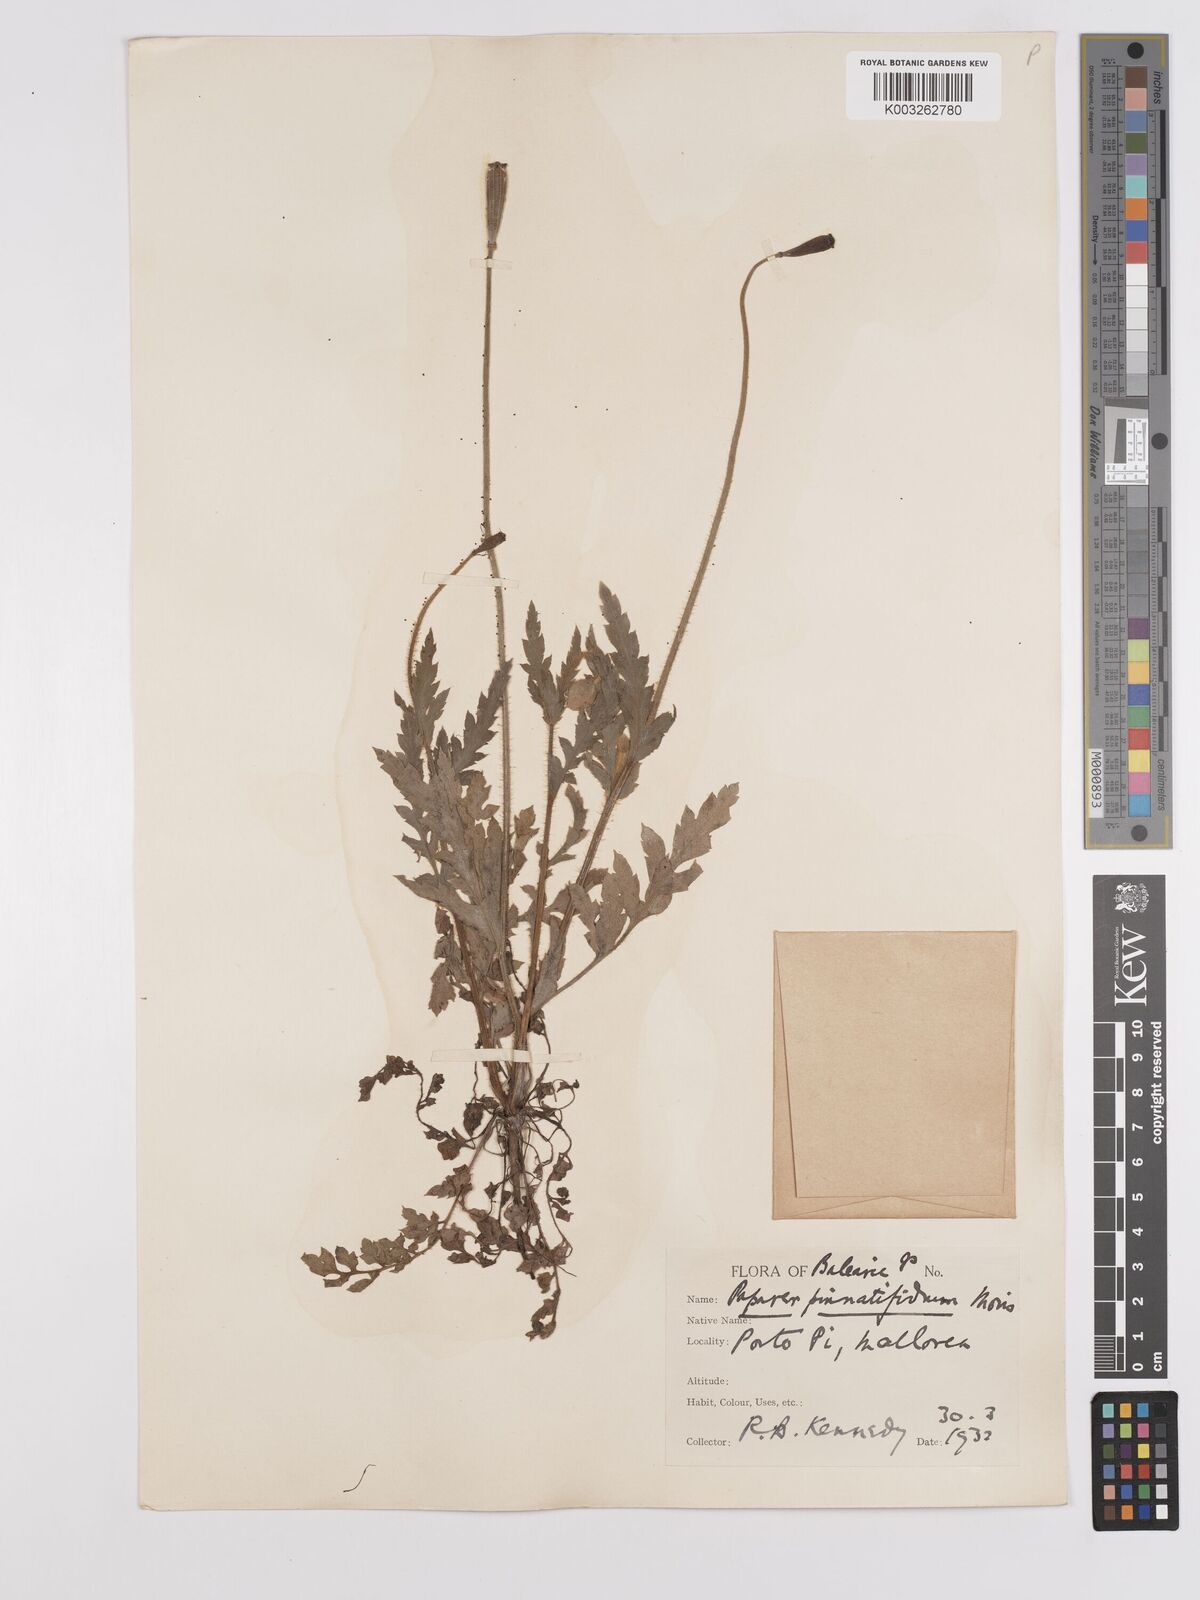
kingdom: Plantae
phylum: Tracheophyta
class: Magnoliopsida
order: Ranunculales
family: Papaveraceae
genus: Papaver
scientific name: Papaver pinnatifidum
